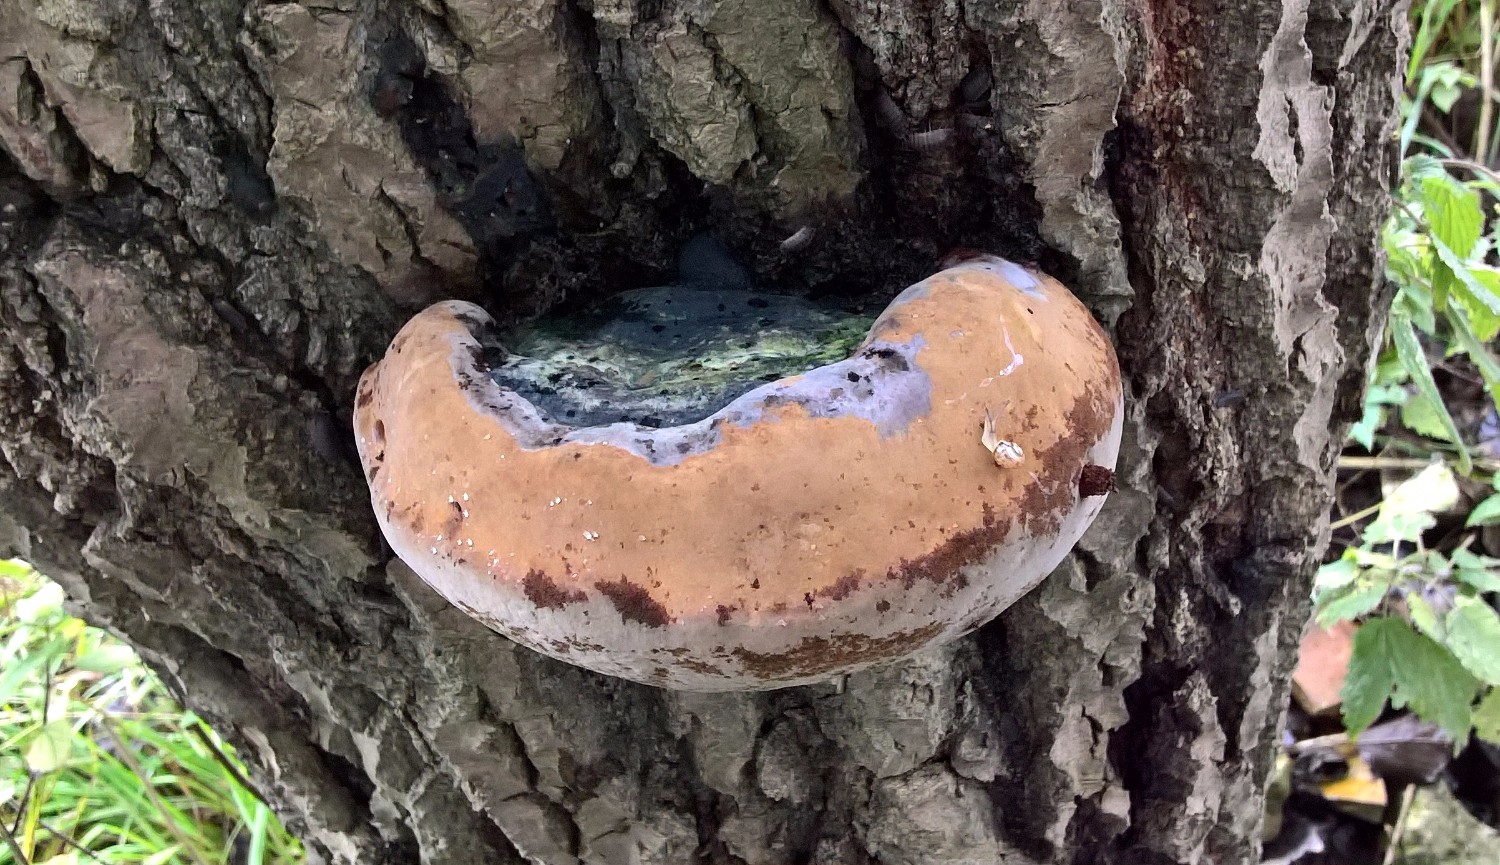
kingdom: Fungi
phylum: Basidiomycota
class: Agaricomycetes
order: Hymenochaetales
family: Hymenochaetaceae
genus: Phellinus
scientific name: Phellinus populicola
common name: poppel-ildporesvamp
